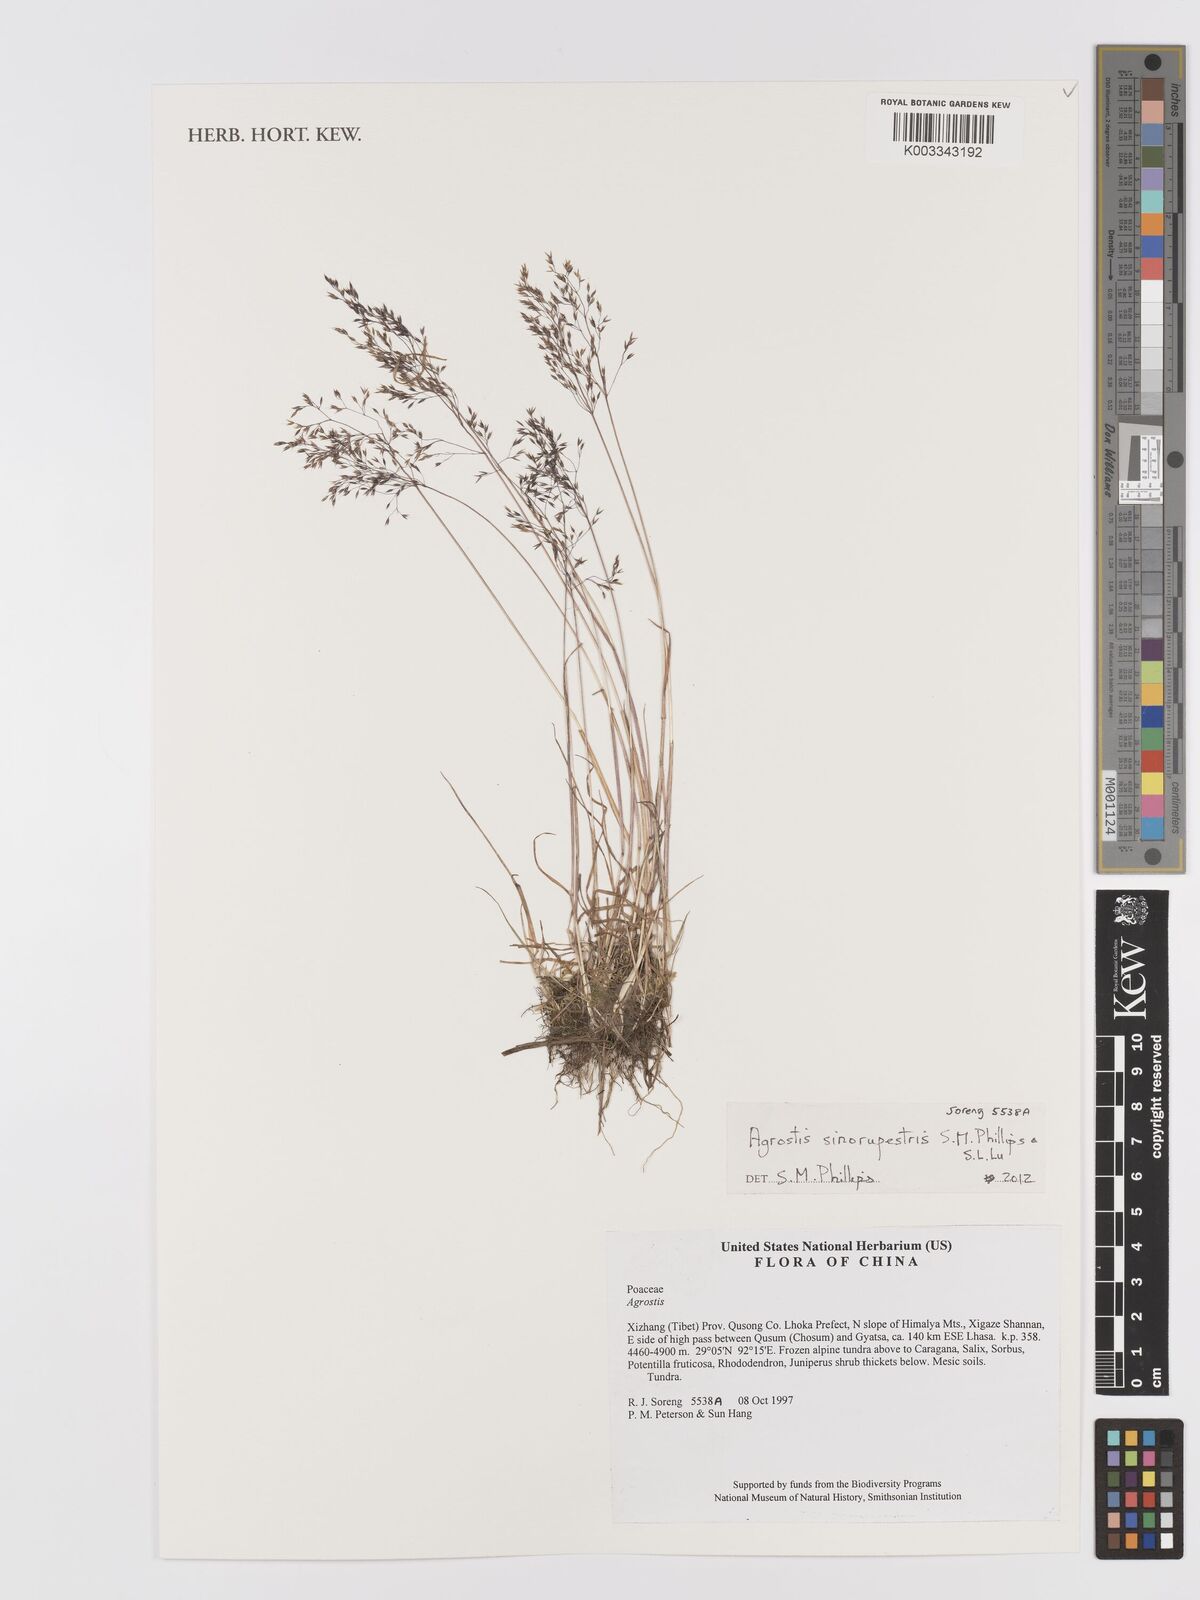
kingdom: Plantae
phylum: Tracheophyta
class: Liliopsida
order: Poales
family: Poaceae
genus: Agrostis
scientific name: Agrostis sinorupestris
